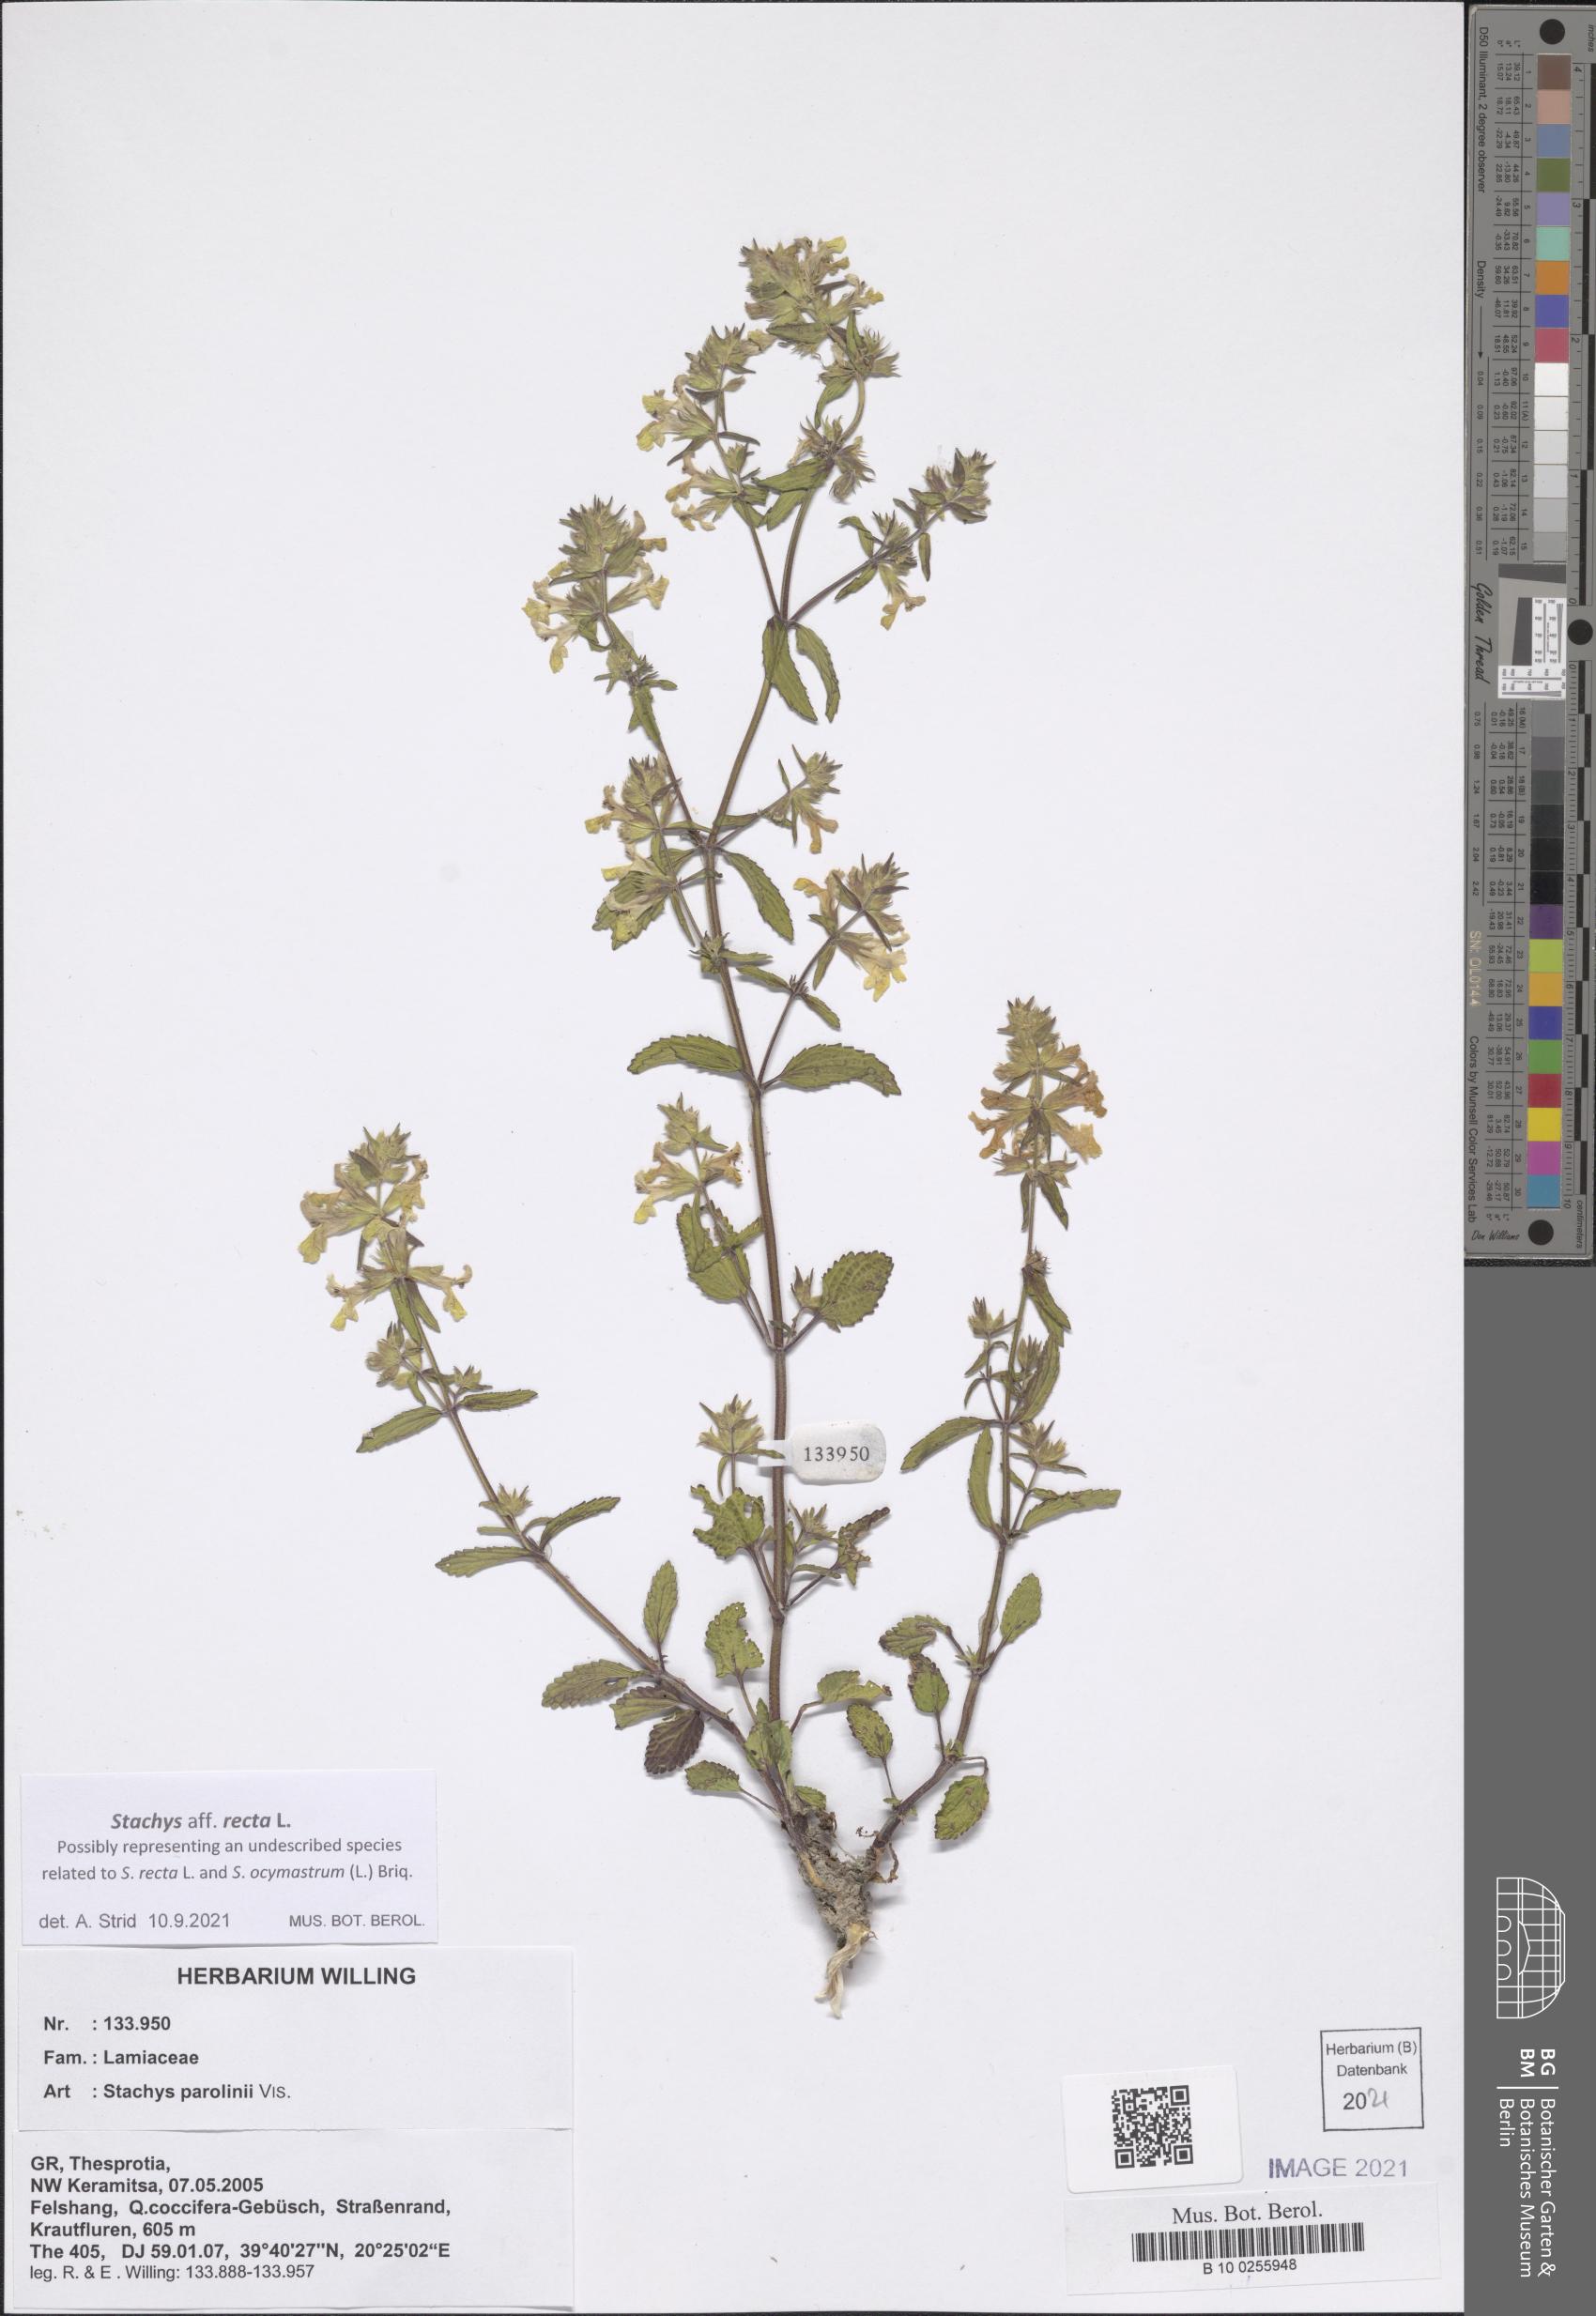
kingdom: Plantae
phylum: Tracheophyta
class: Magnoliopsida
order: Lamiales
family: Lamiaceae
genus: Stachys
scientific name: Stachys recta
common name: Perennial yellow-woundwort
